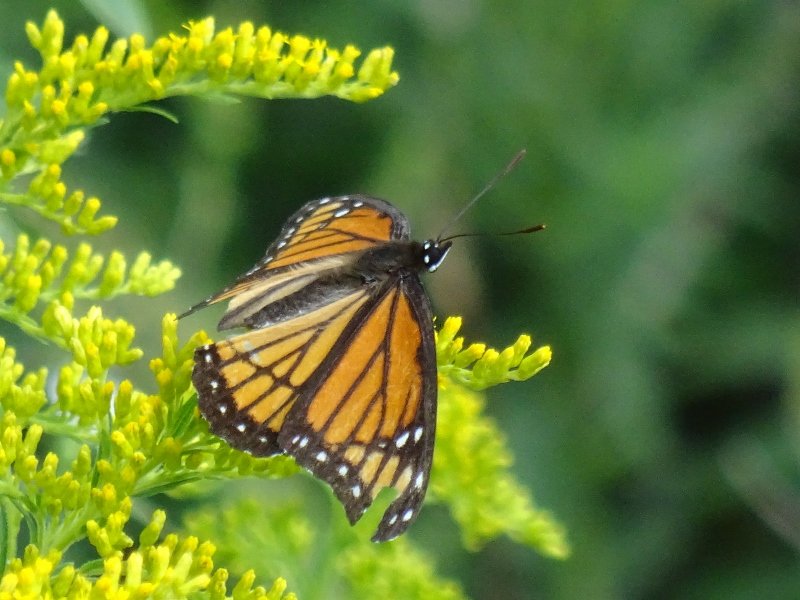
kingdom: Animalia
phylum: Arthropoda
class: Insecta
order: Lepidoptera
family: Nymphalidae
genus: Limenitis
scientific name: Limenitis archippus
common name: Viceroy
